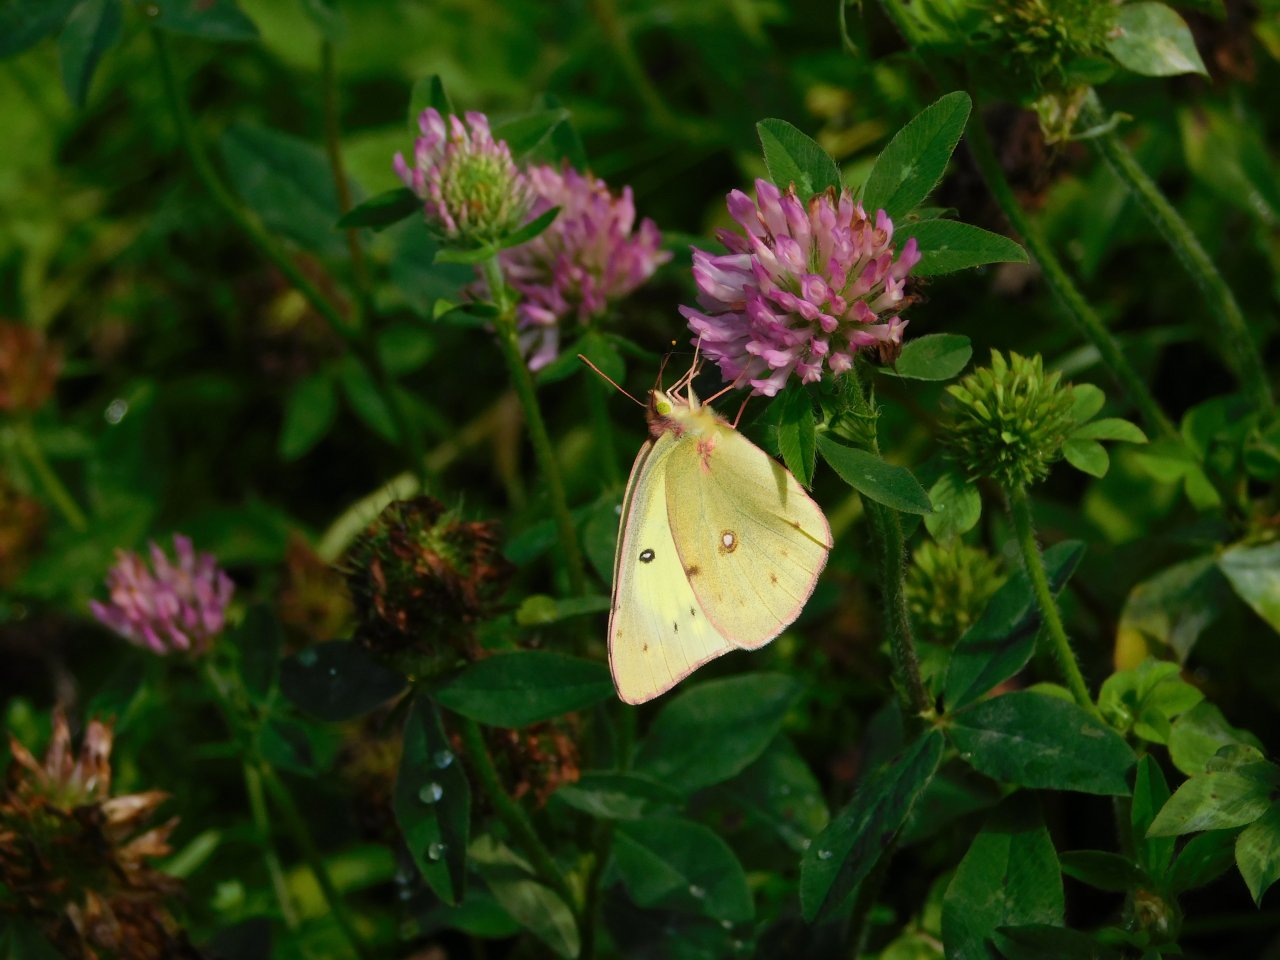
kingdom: Animalia
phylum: Arthropoda
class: Insecta
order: Lepidoptera
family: Pieridae
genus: Colias
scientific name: Colias philodice
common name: Clouded Sulphur
